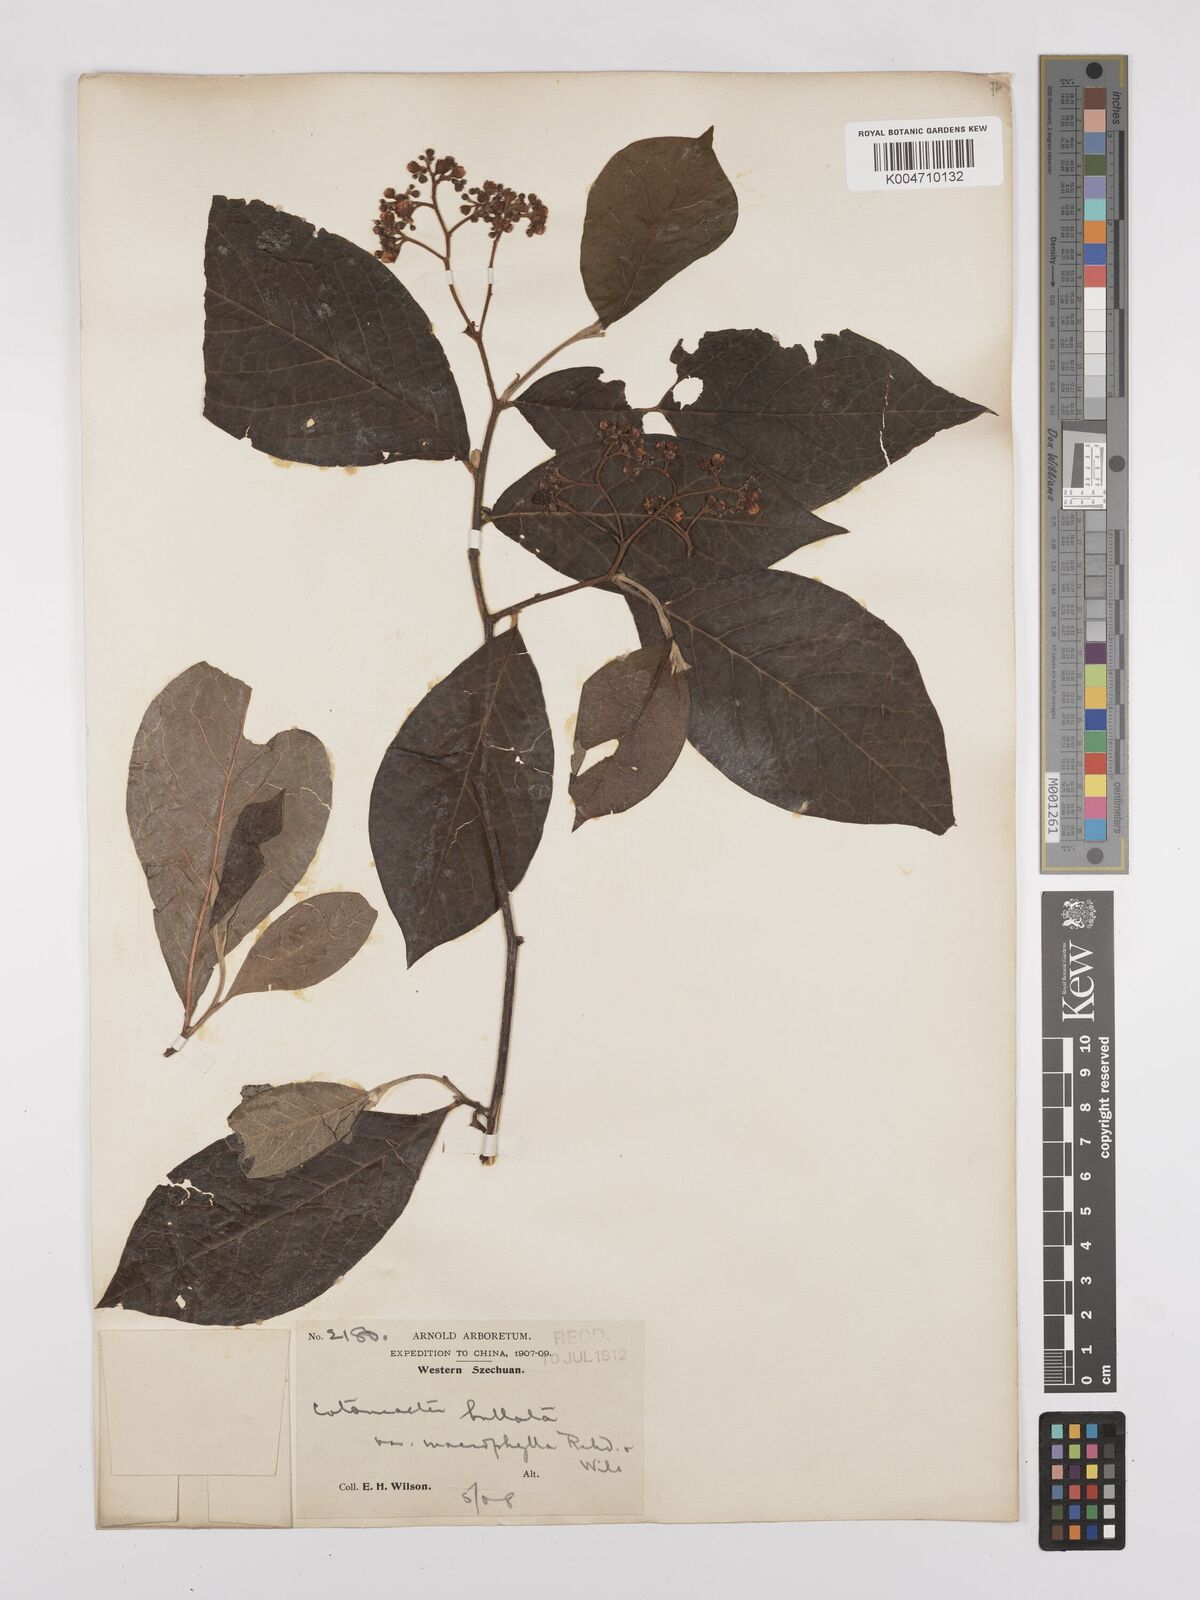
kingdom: Plantae
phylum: Tracheophyta
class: Magnoliopsida
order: Rosales
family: Rosaceae
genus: Cotoneaster
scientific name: Cotoneaster bullatus
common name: Hollyberry cotoneaster
